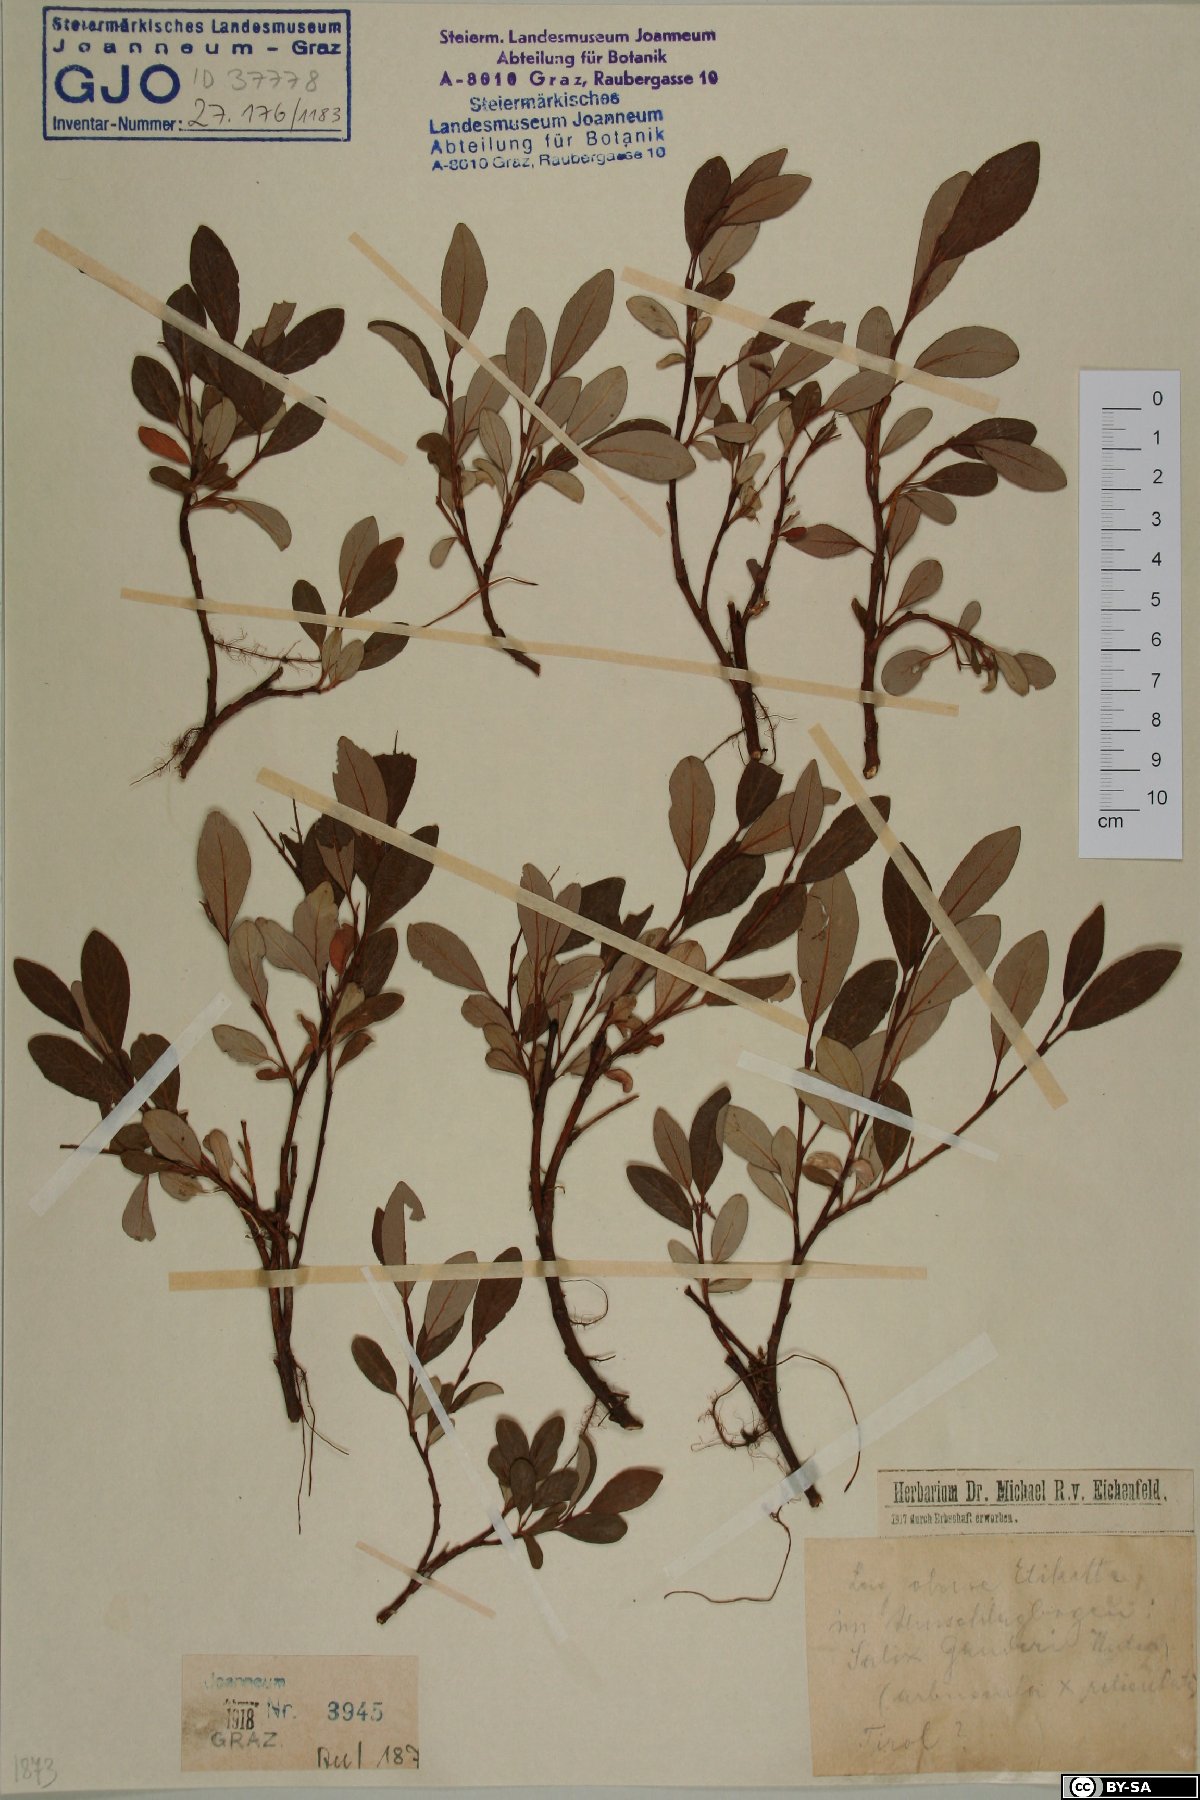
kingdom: Plantae
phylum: Tracheophyta
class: Magnoliopsida
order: Malpighiales
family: Salicaceae
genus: Salix
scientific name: Salix ganderi
